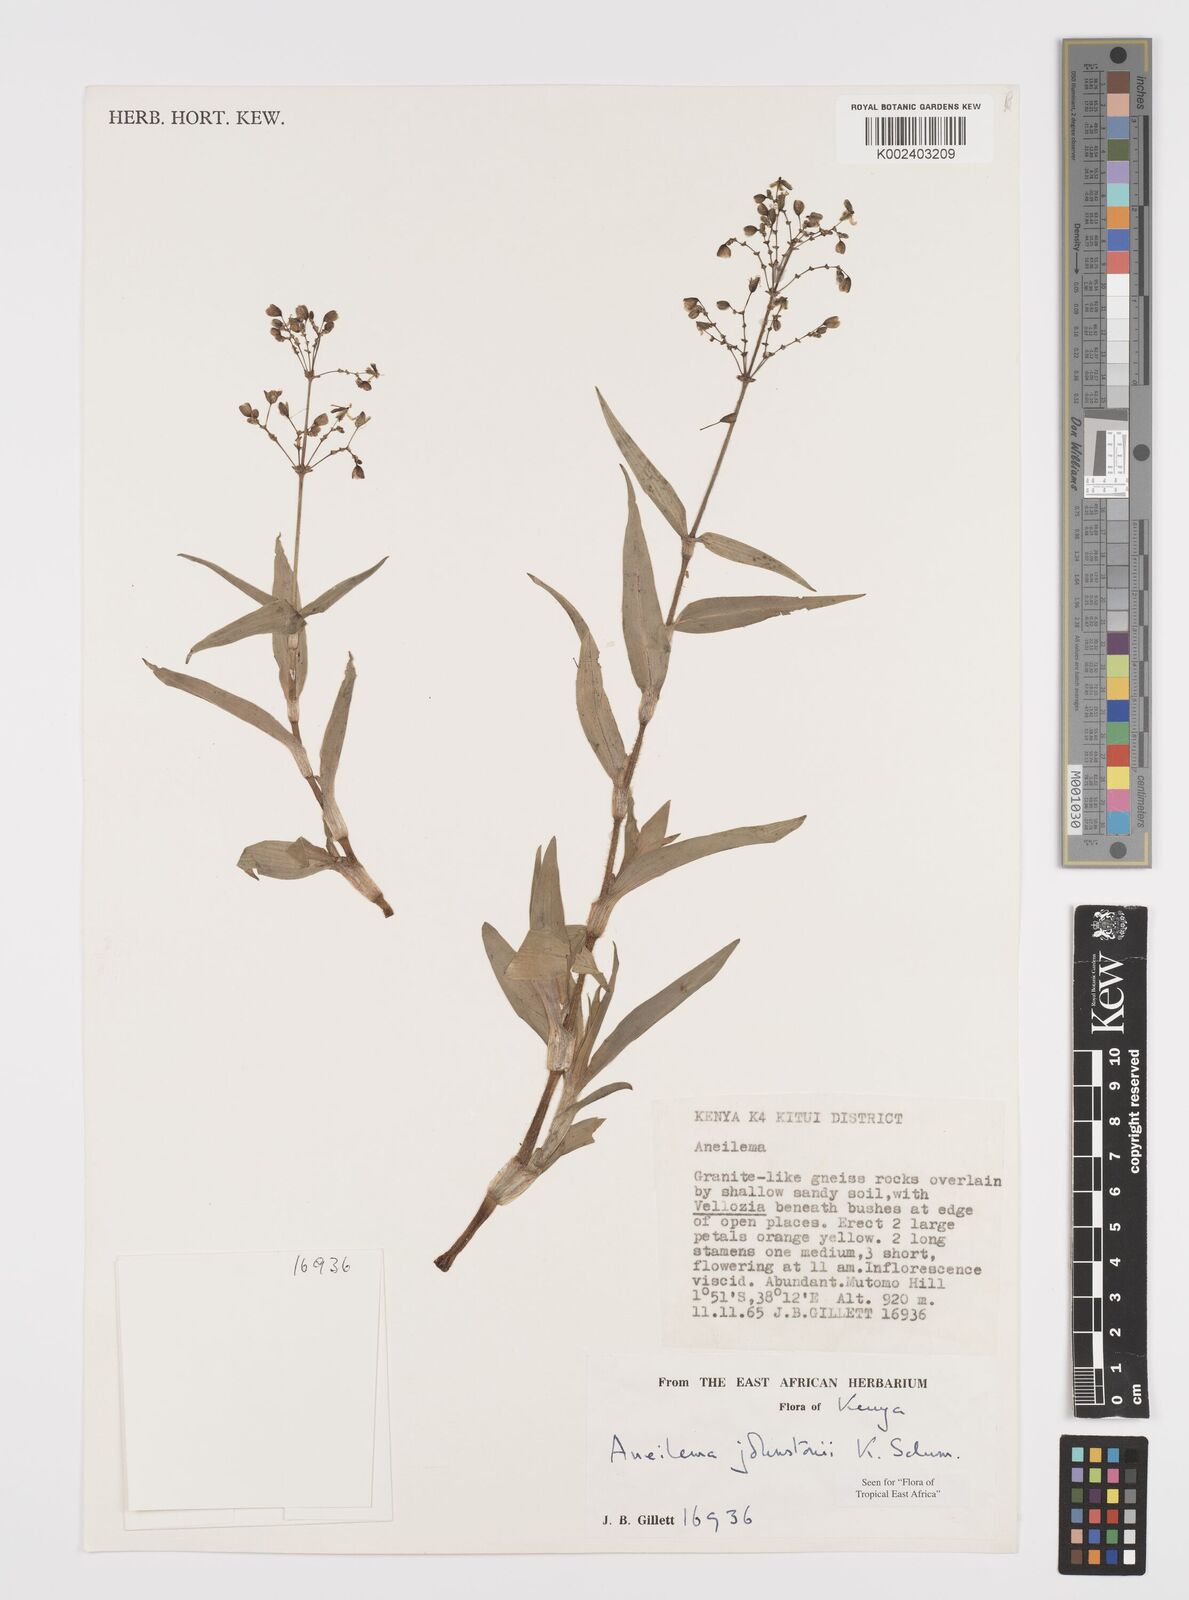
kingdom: Plantae
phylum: Tracheophyta
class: Liliopsida
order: Commelinales
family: Commelinaceae
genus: Aneilema
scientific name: Aneilema johnstonii
